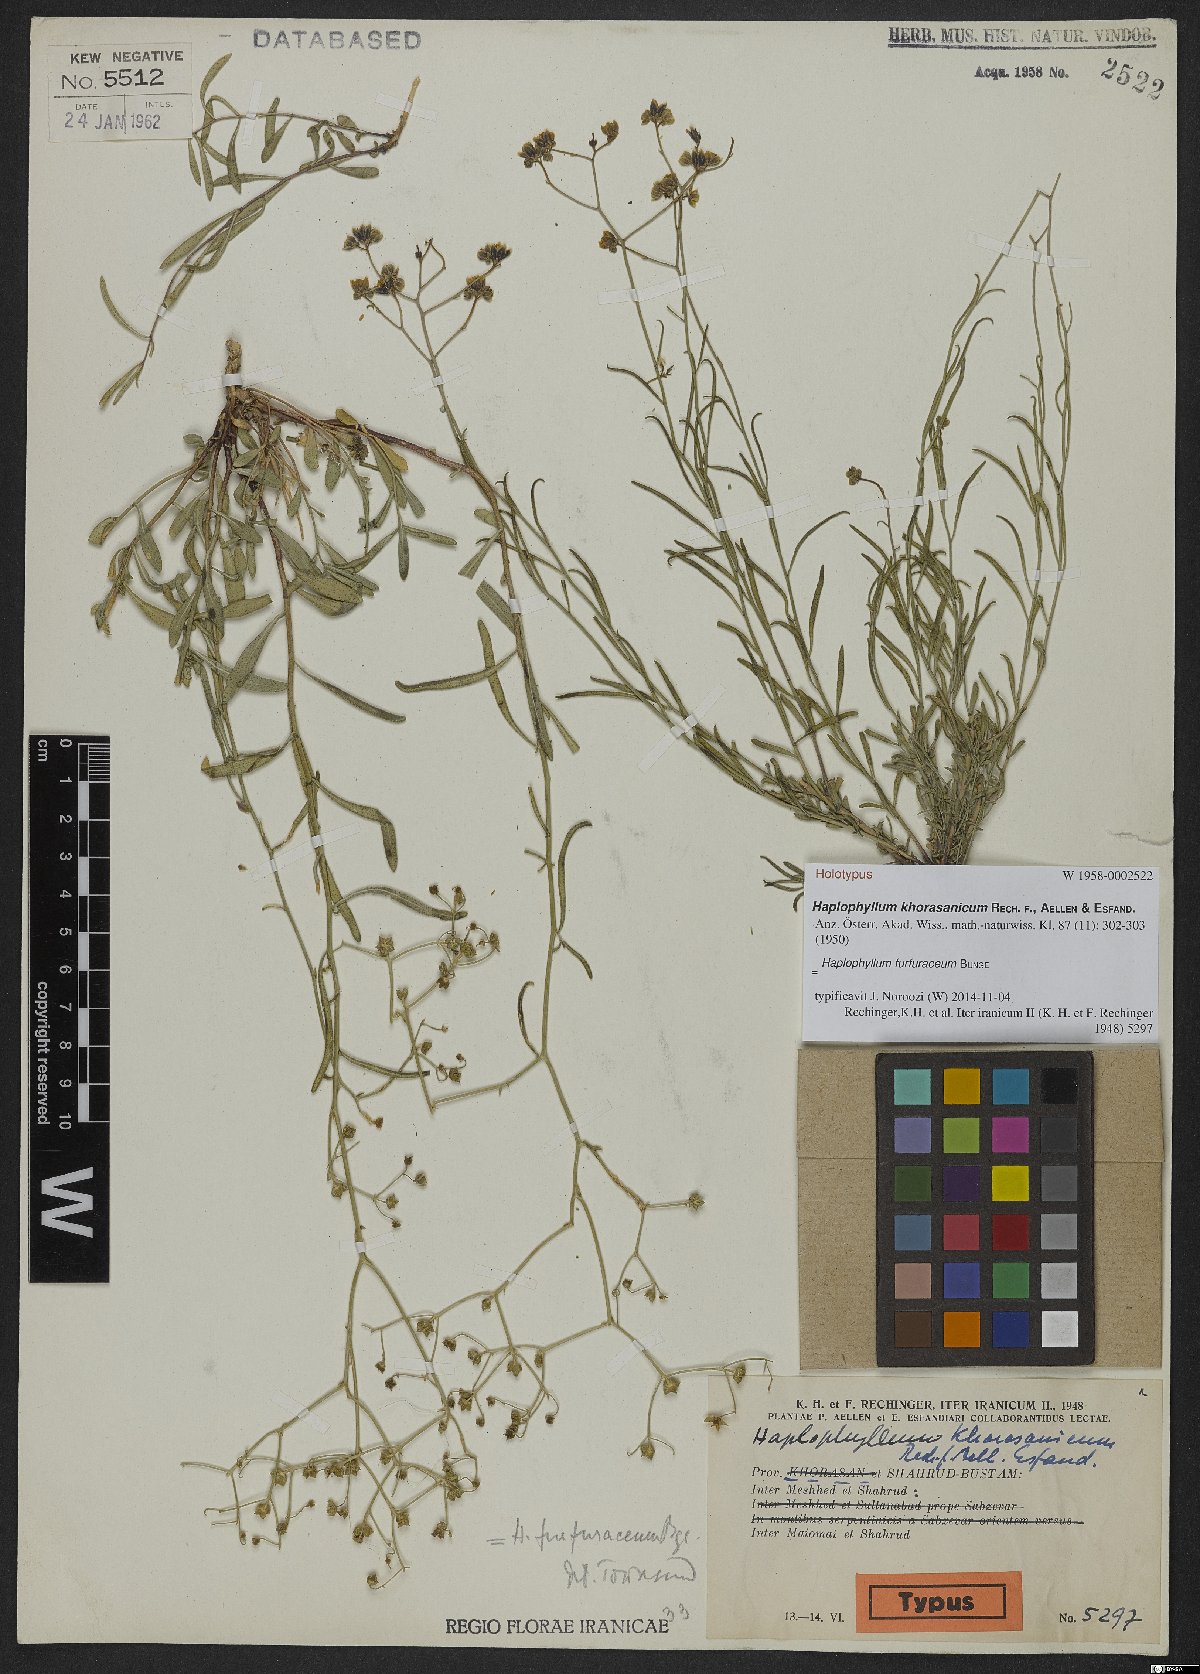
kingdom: Plantae
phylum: Tracheophyta
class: Magnoliopsida
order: Sapindales
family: Rutaceae
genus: Haplophyllum
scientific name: Haplophyllum furfuraceum
